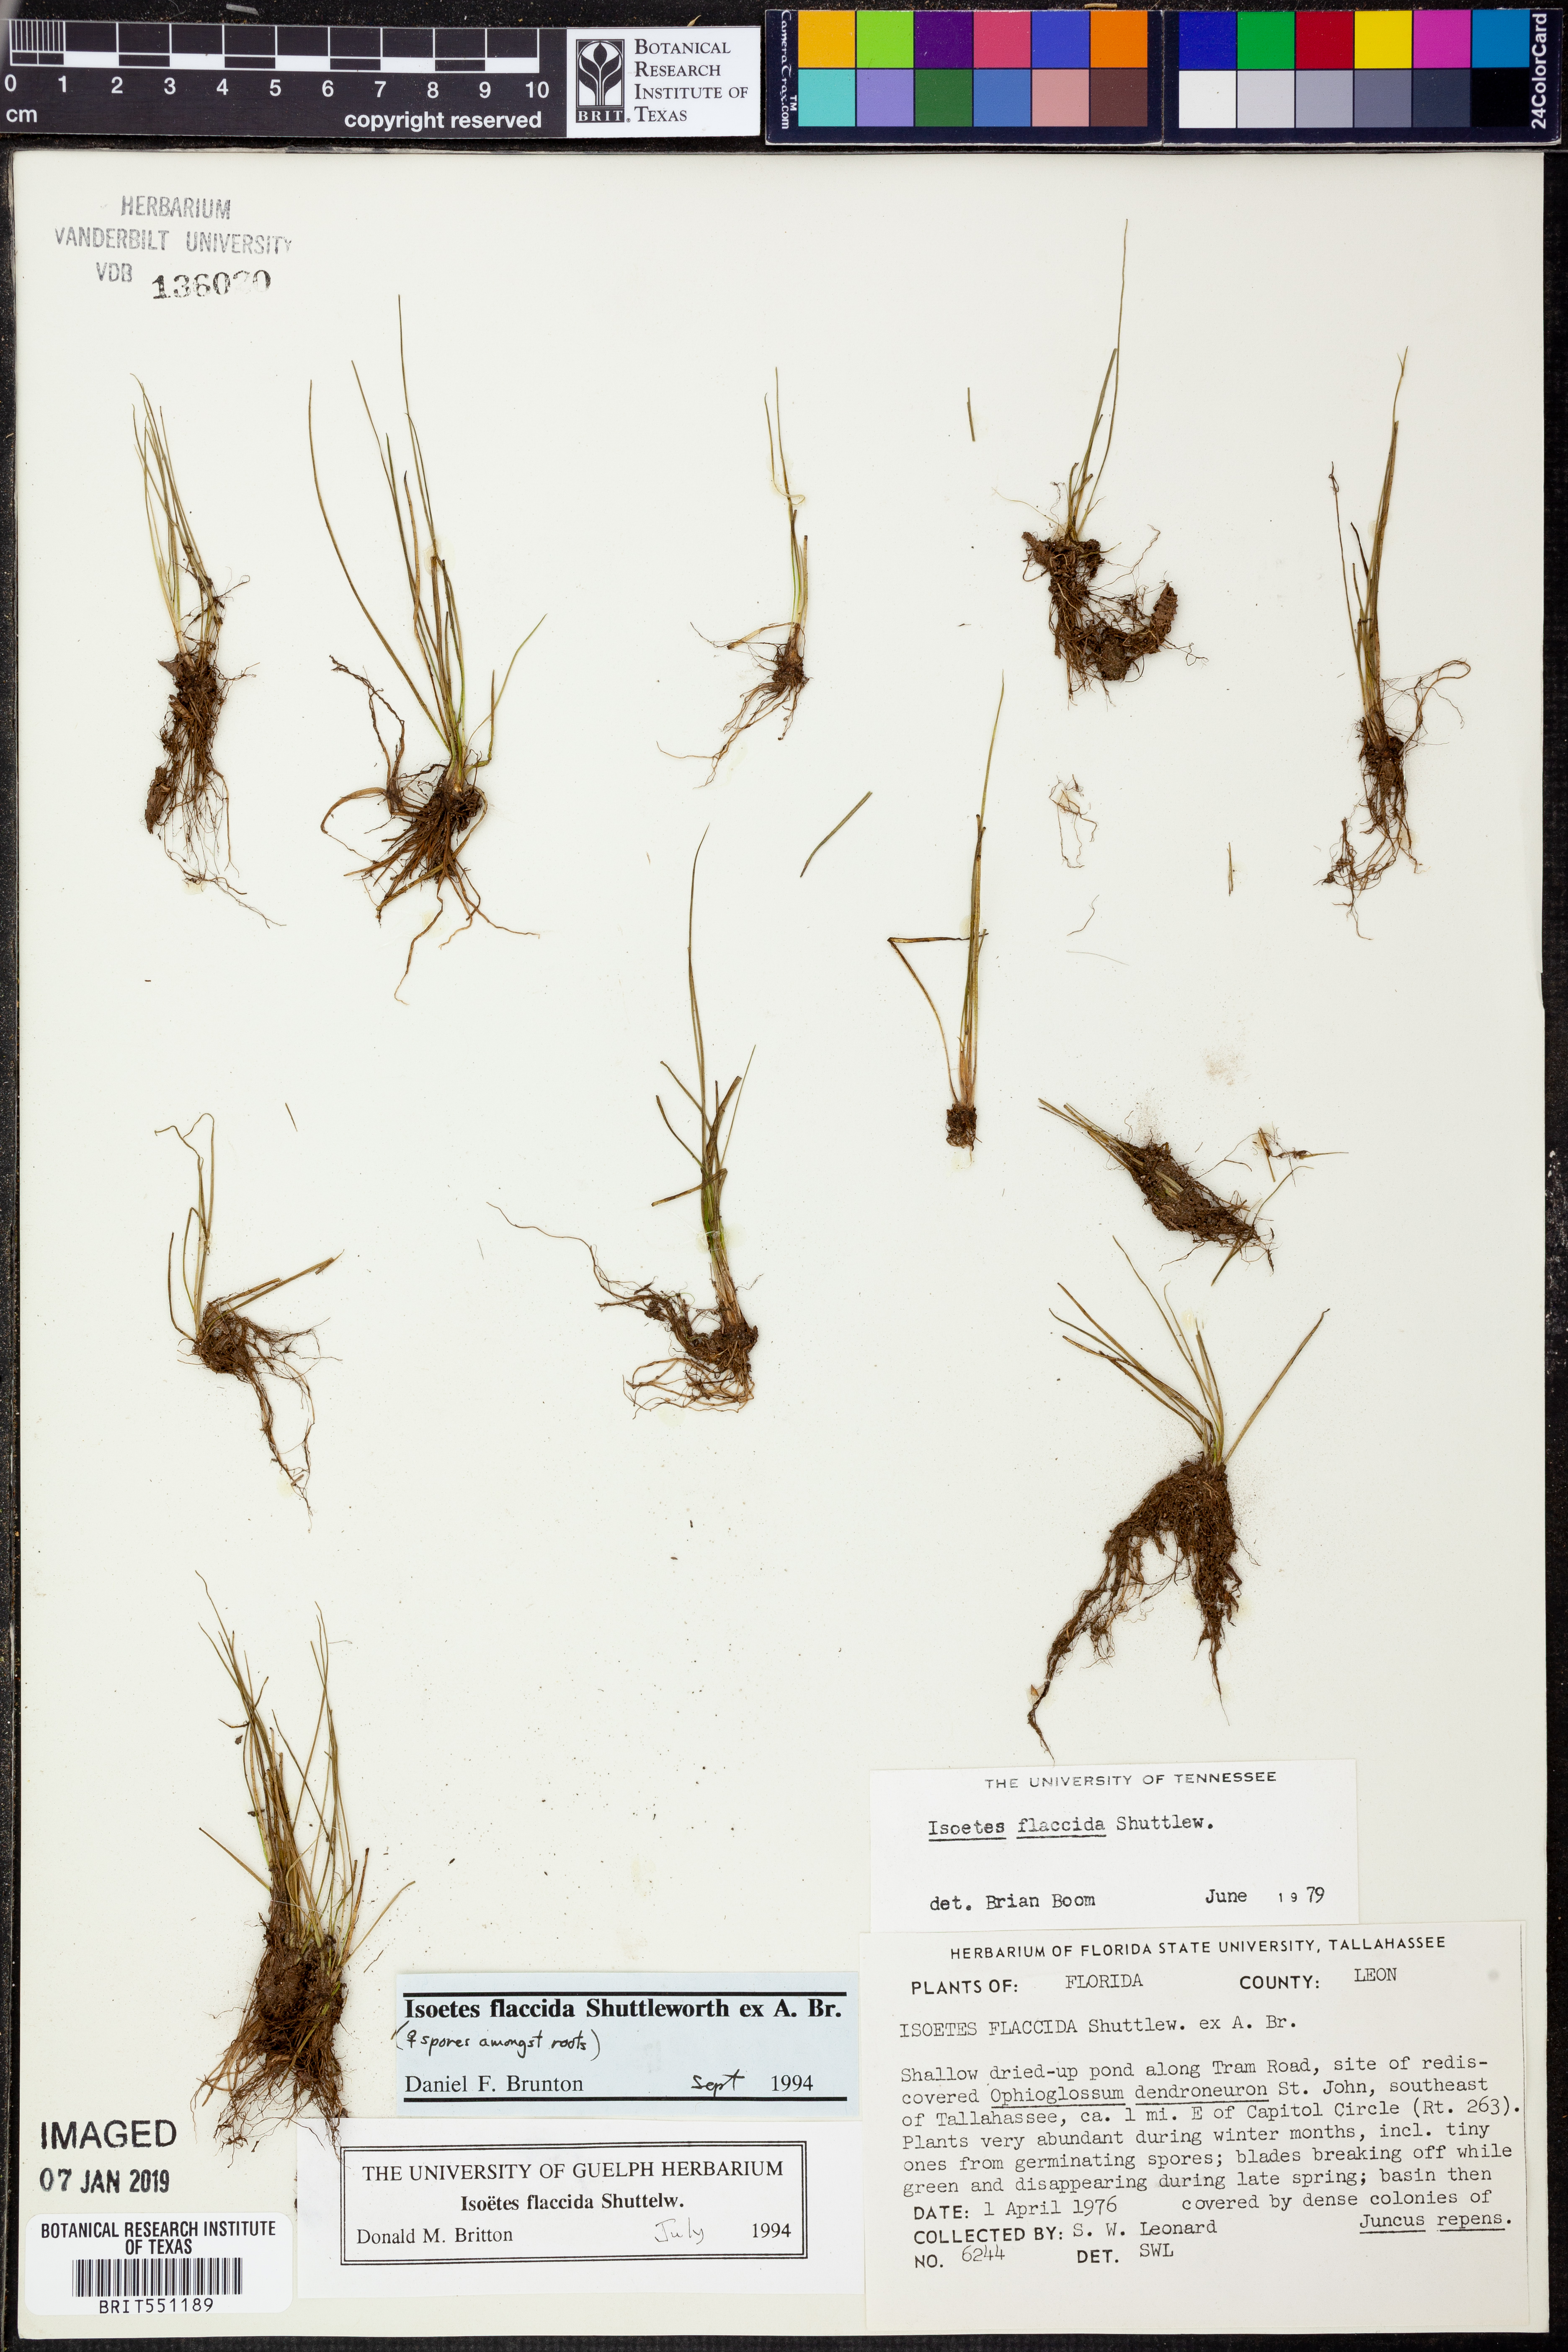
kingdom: Plantae
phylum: Tracheophyta
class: Lycopodiopsida
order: Isoetales
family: Isoetaceae
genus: Isoetes
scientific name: Isoetes flaccida
